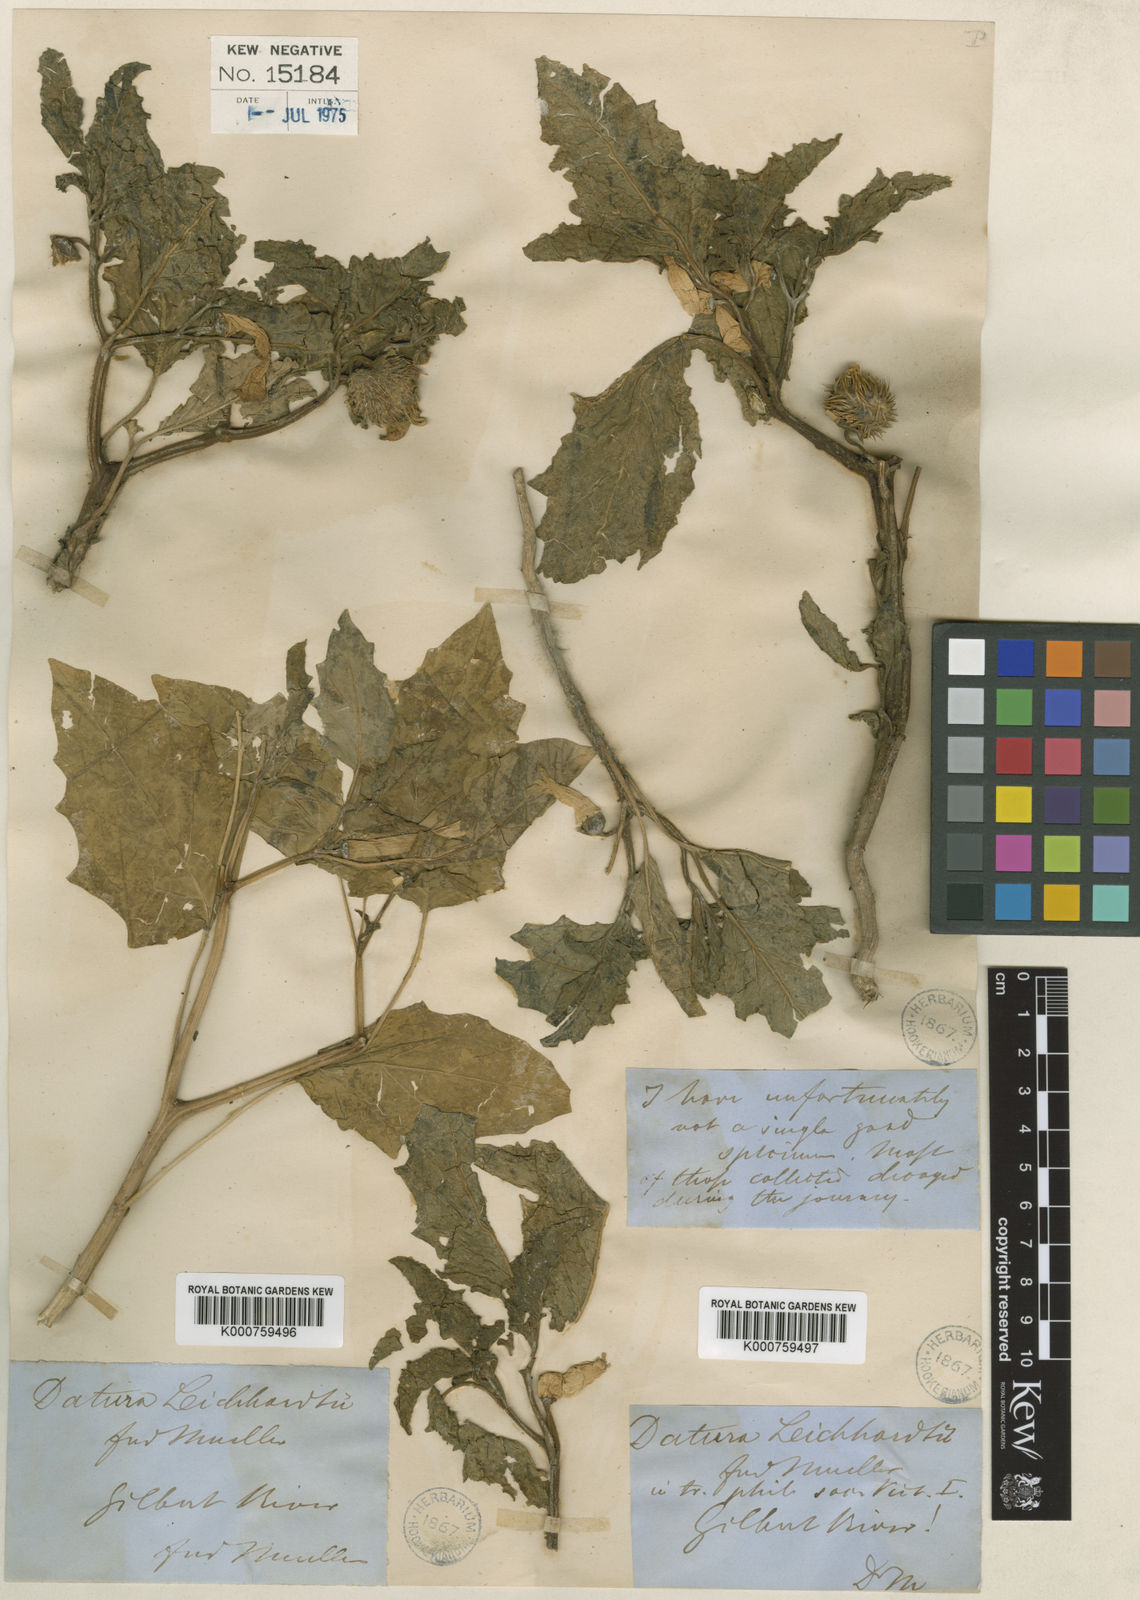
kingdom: Plantae
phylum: Tracheophyta
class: Magnoliopsida
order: Solanales
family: Solanaceae
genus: Datura
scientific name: Datura
